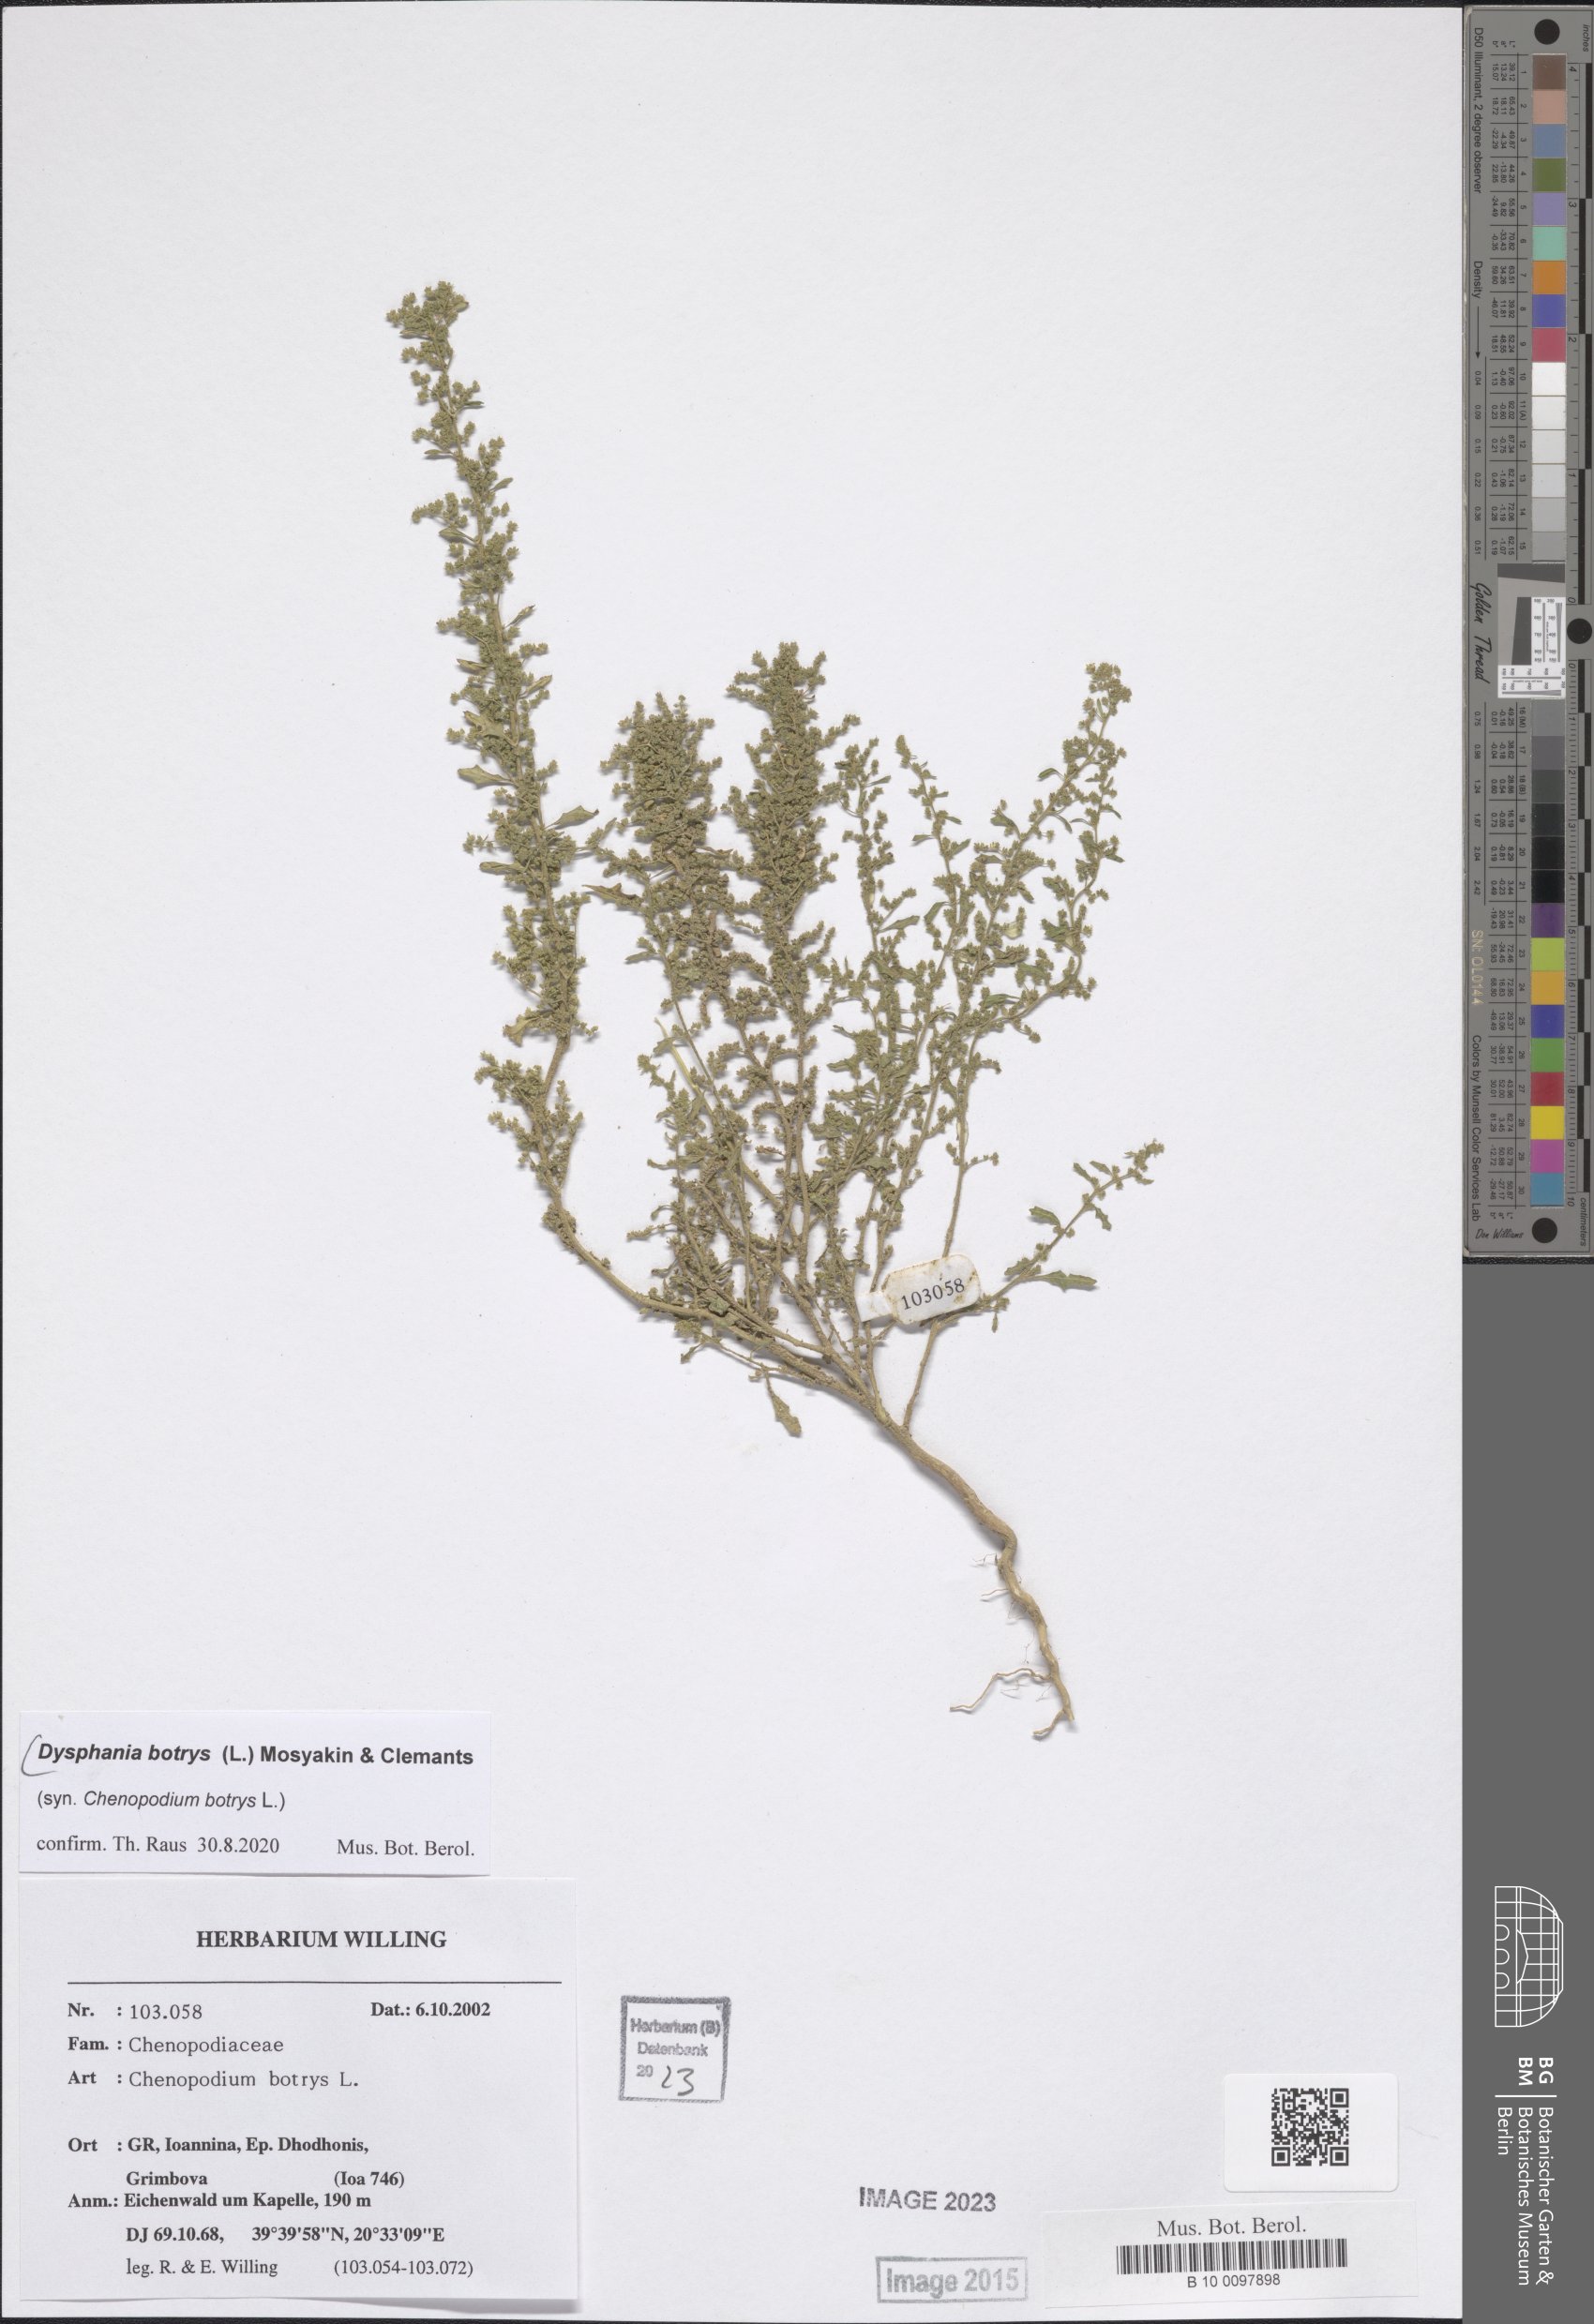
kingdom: Plantae
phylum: Tracheophyta
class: Magnoliopsida
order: Caryophyllales
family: Amaranthaceae
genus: Dysphania
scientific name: Dysphania botrys
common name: Feather-geranium
